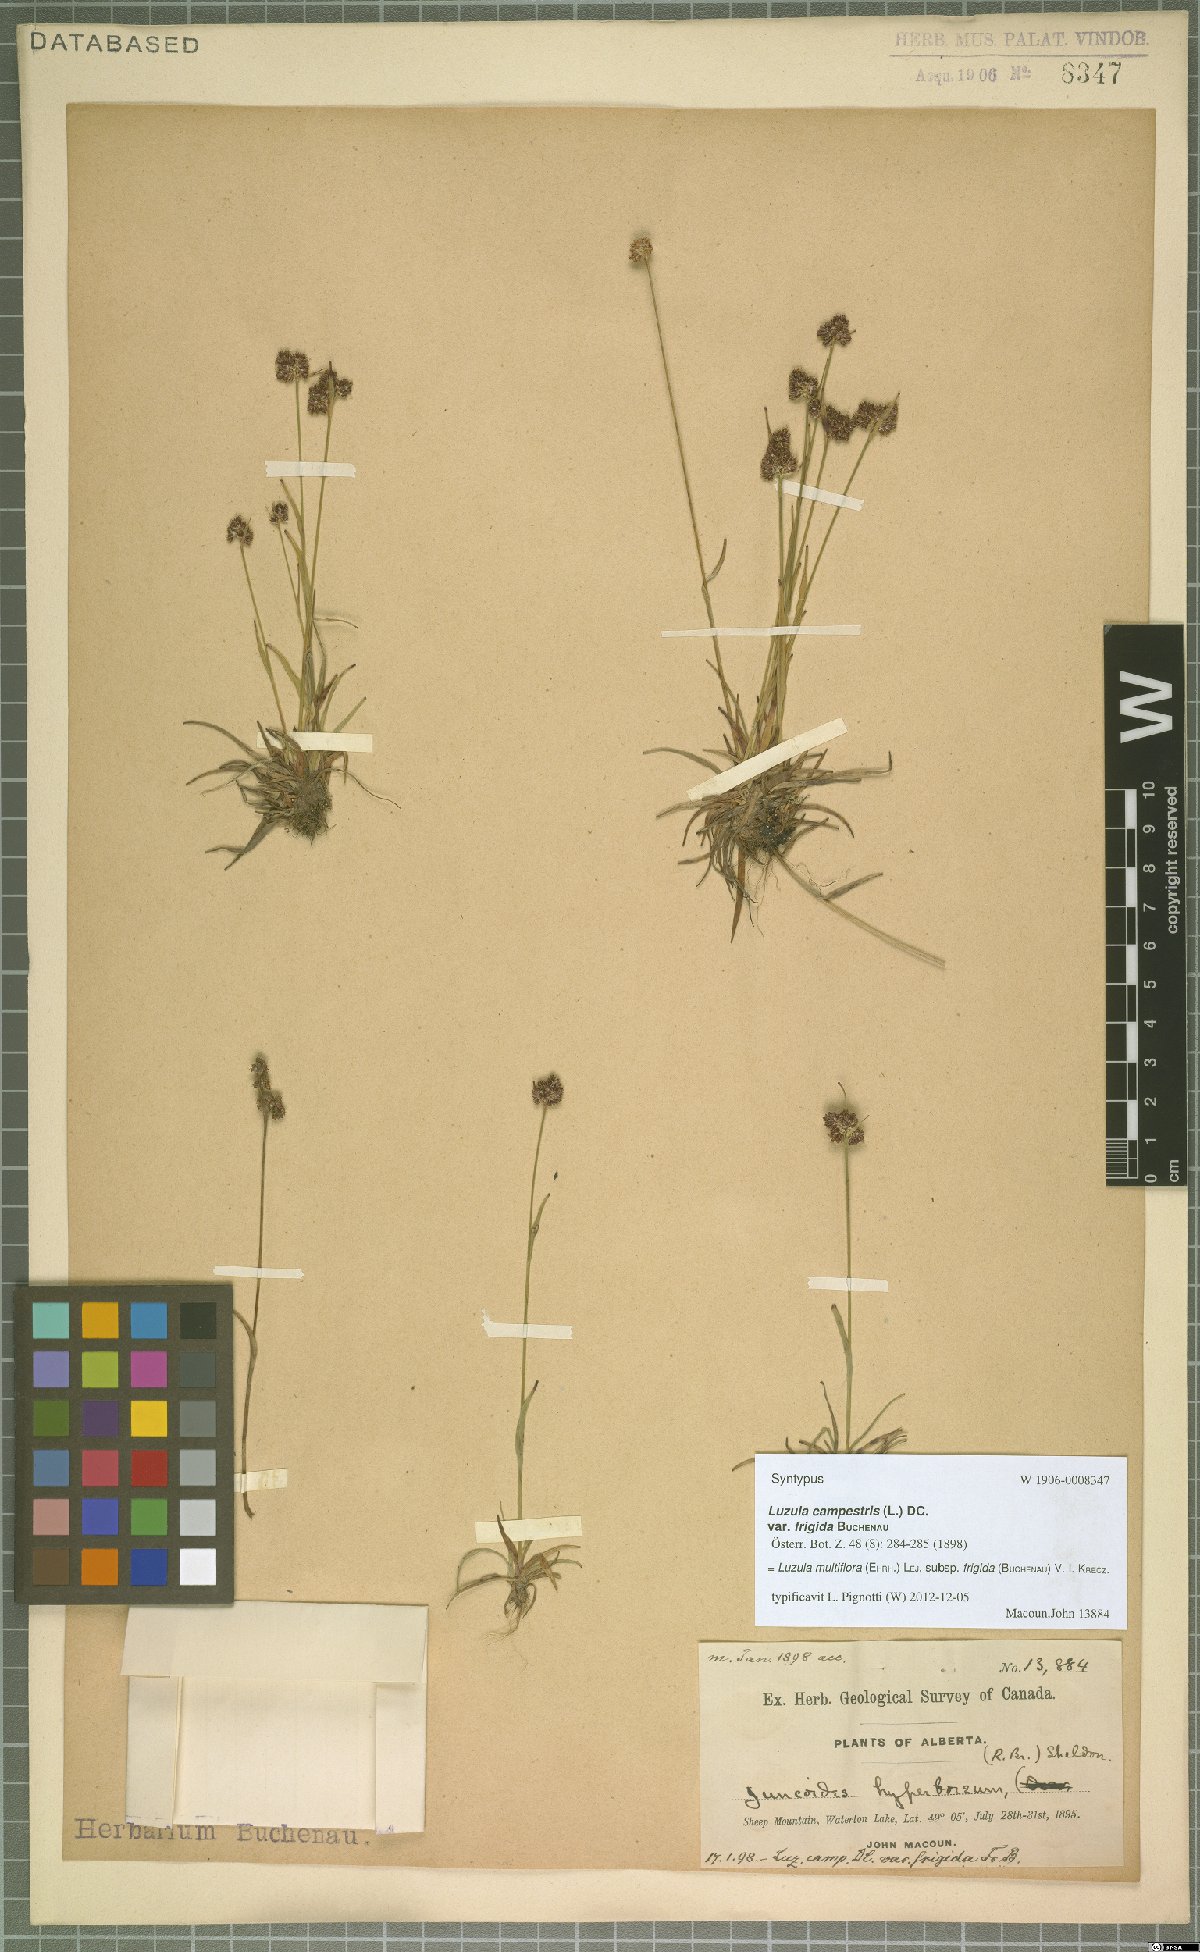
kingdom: Plantae
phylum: Tracheophyta
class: Liliopsida
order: Poales
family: Juncaceae
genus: Luzula
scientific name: Luzula multiflora
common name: Heath wood-rush
